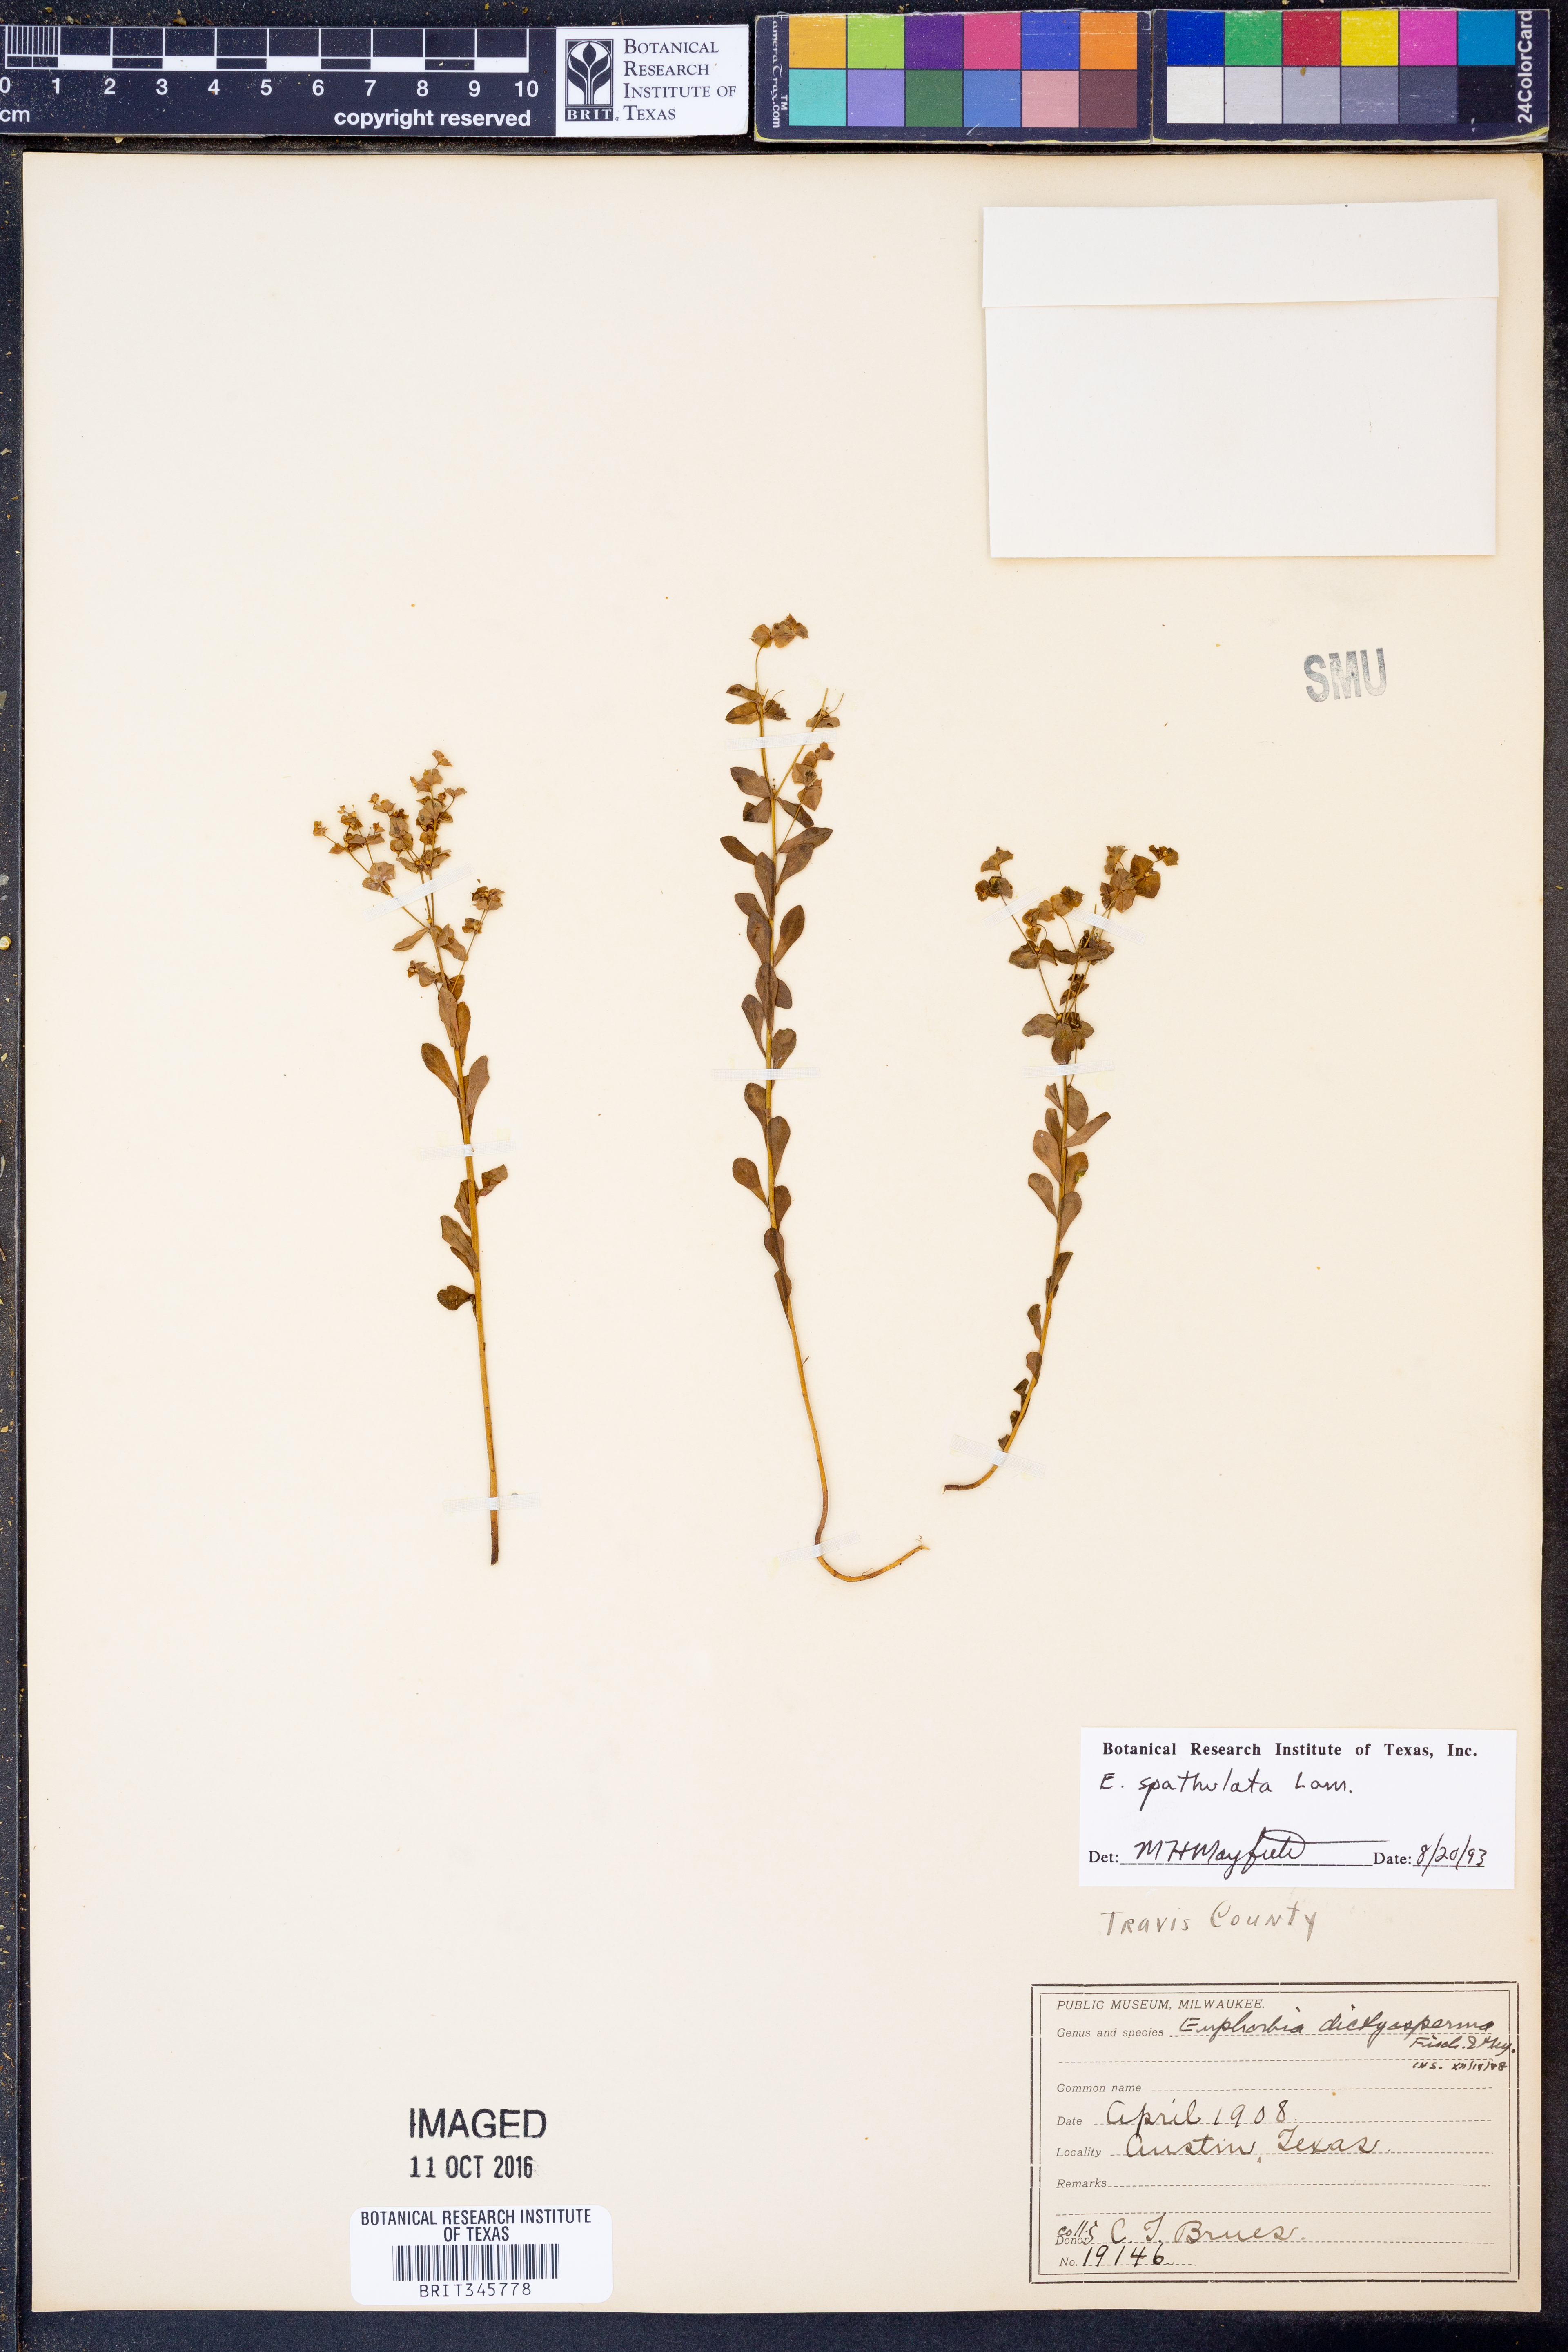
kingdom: Plantae
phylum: Tracheophyta
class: Magnoliopsida
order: Malpighiales
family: Euphorbiaceae
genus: Euphorbia
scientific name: Euphorbia spathulata
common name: Blunt spurge
